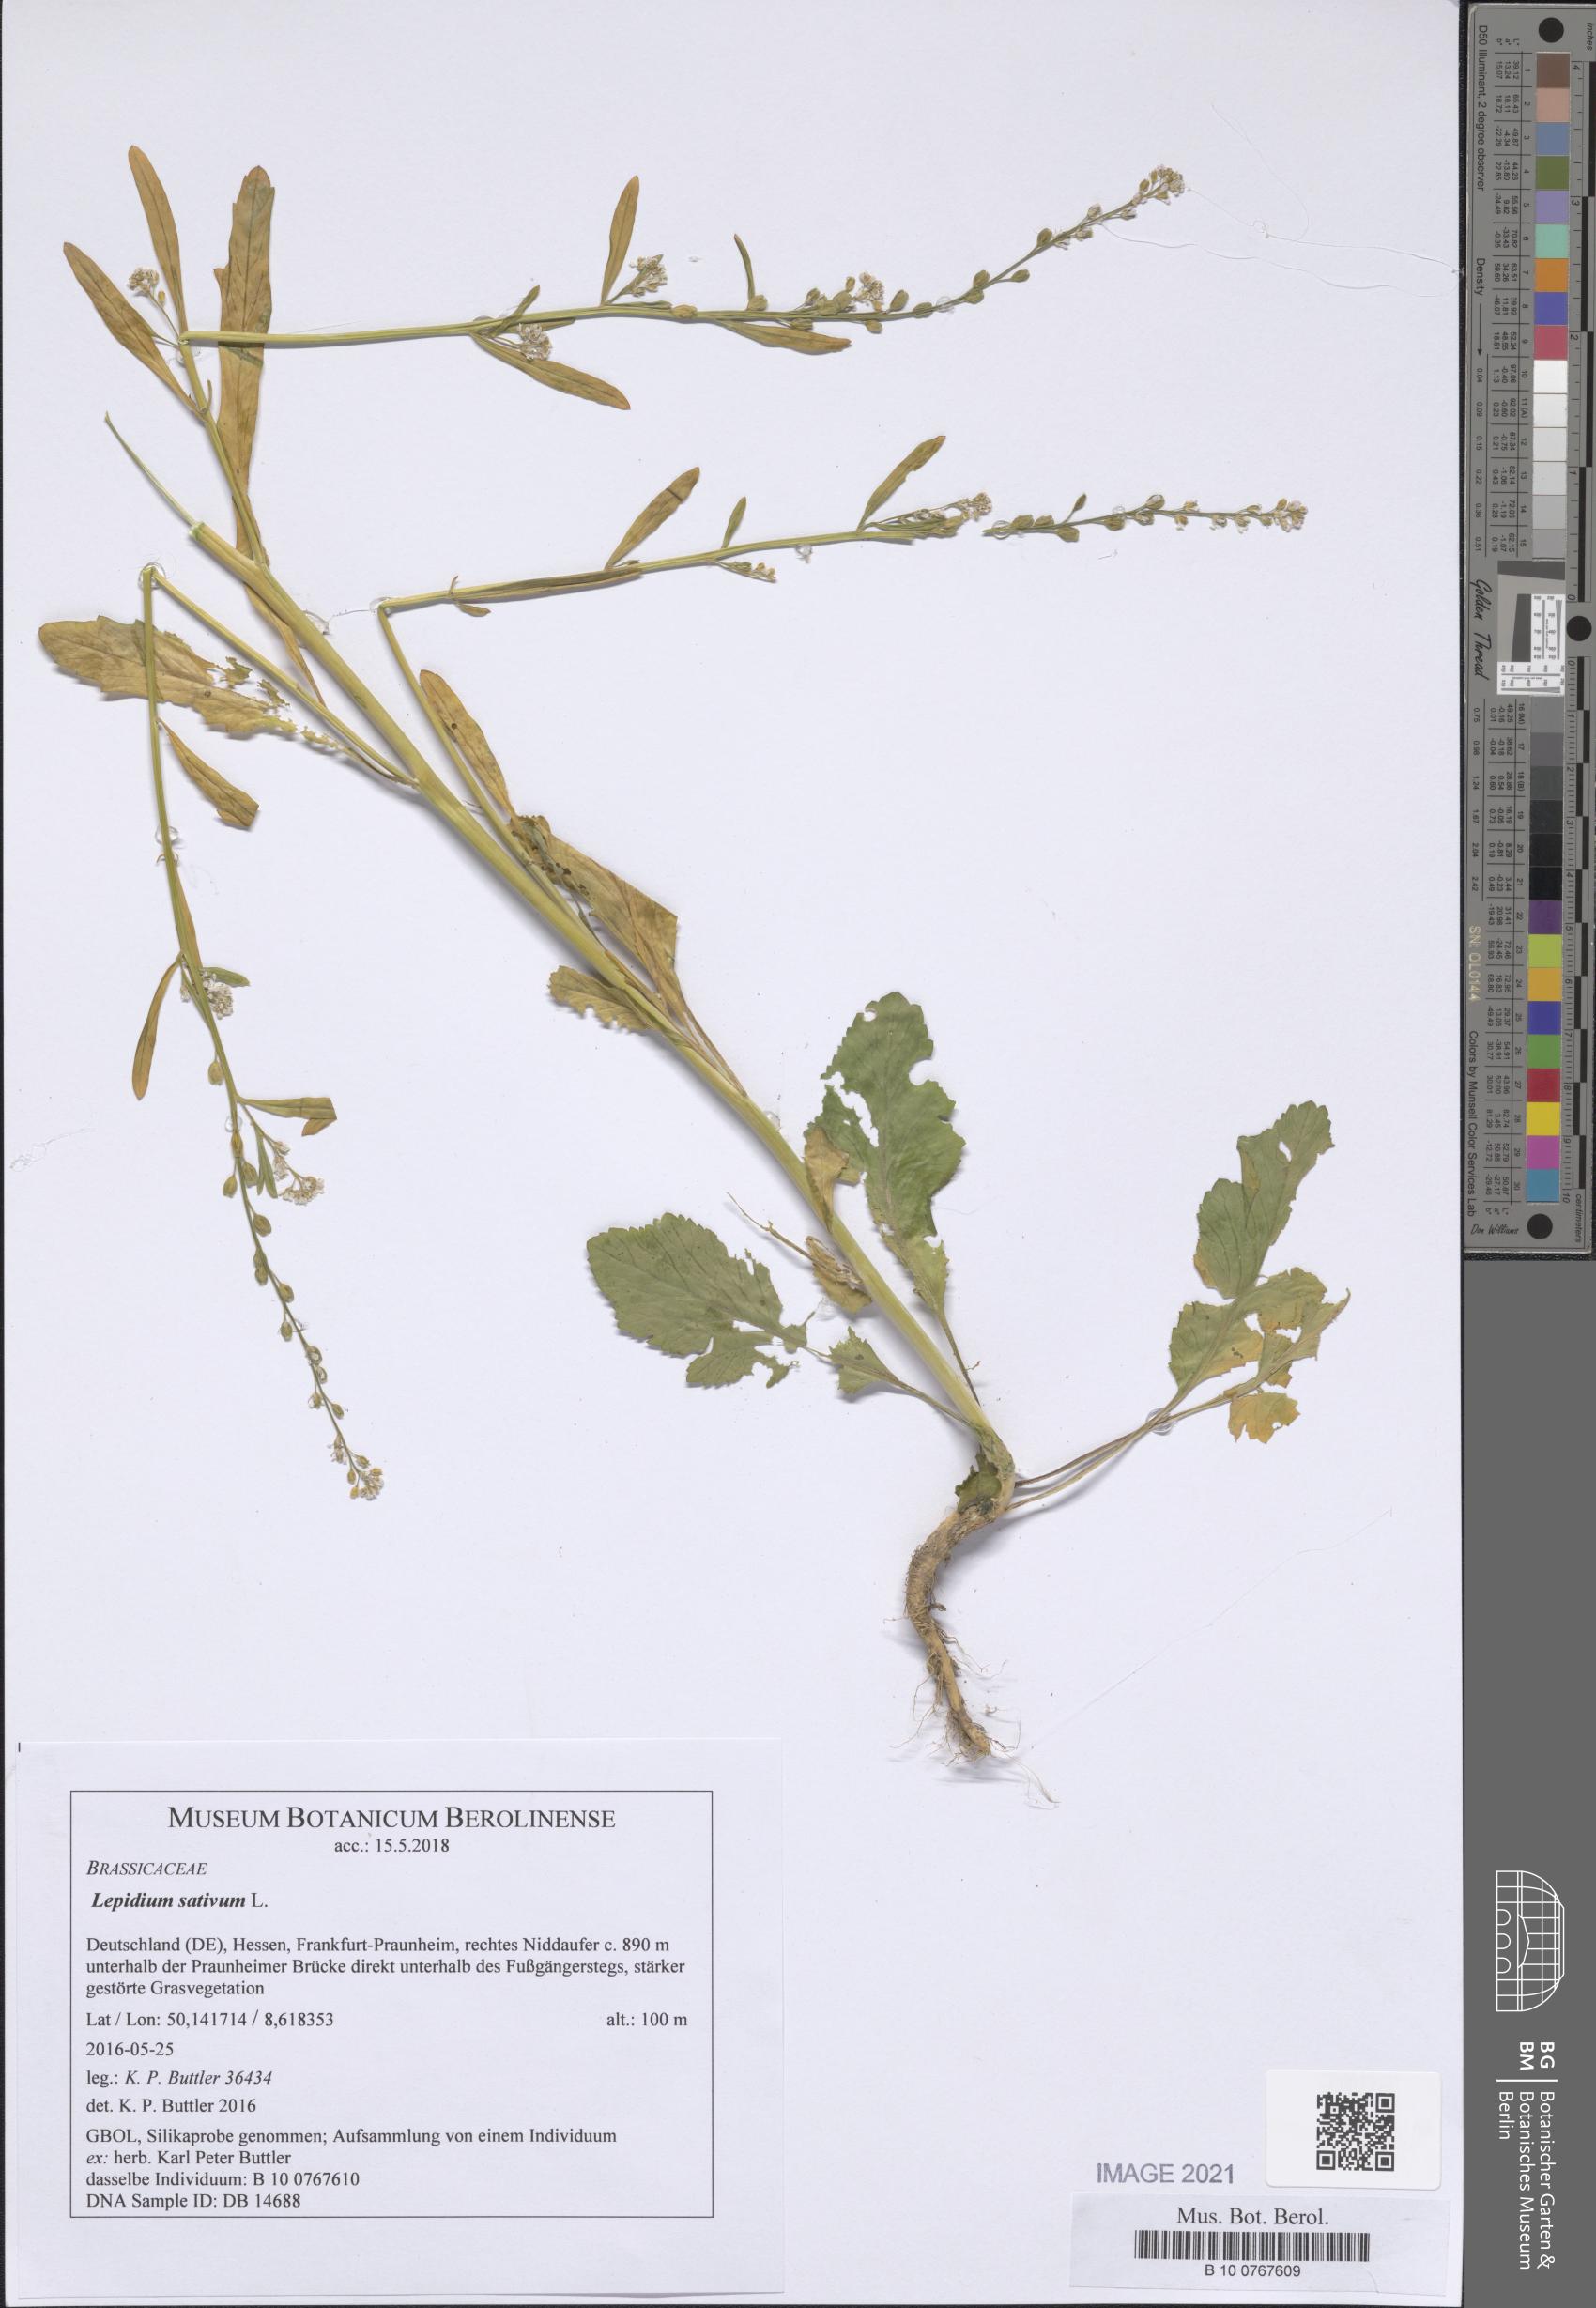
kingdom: Plantae
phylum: Tracheophyta
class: Magnoliopsida
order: Brassicales
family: Brassicaceae
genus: Lepidium
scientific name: Lepidium sativum
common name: Garden cress
